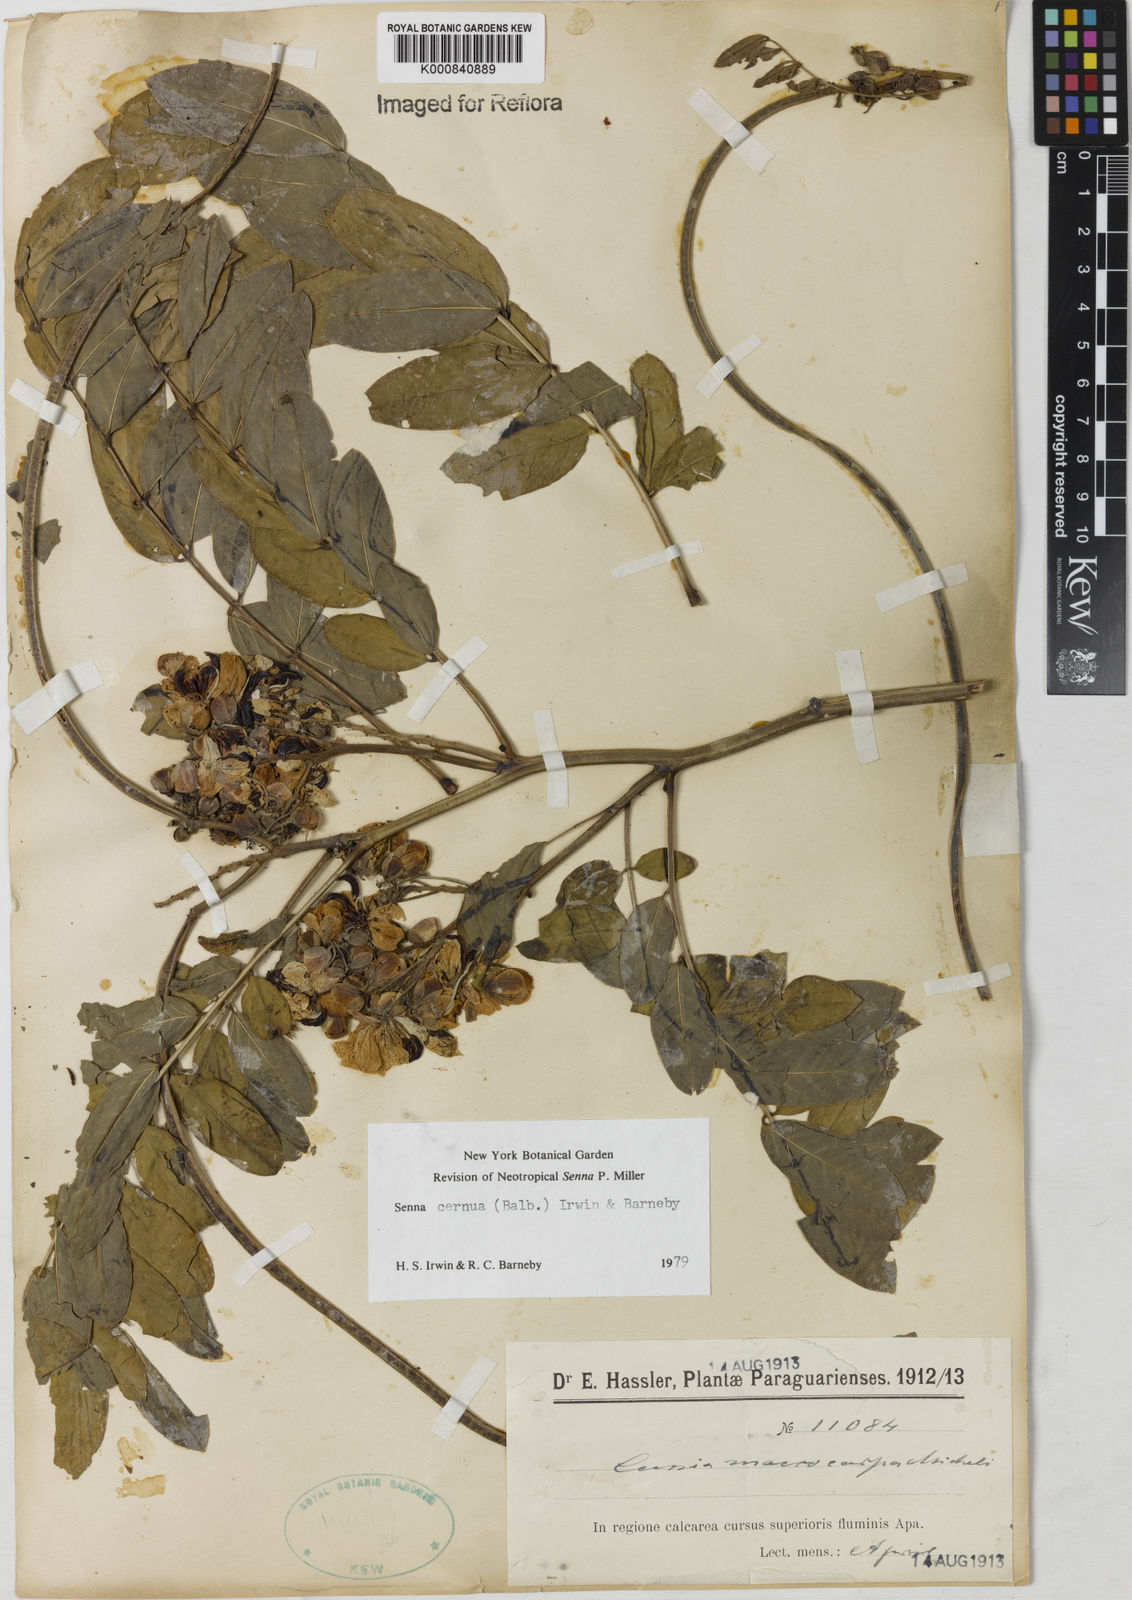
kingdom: Plantae
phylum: Tracheophyta
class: Magnoliopsida
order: Fabales
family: Fabaceae
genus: Senna
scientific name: Senna cernua
